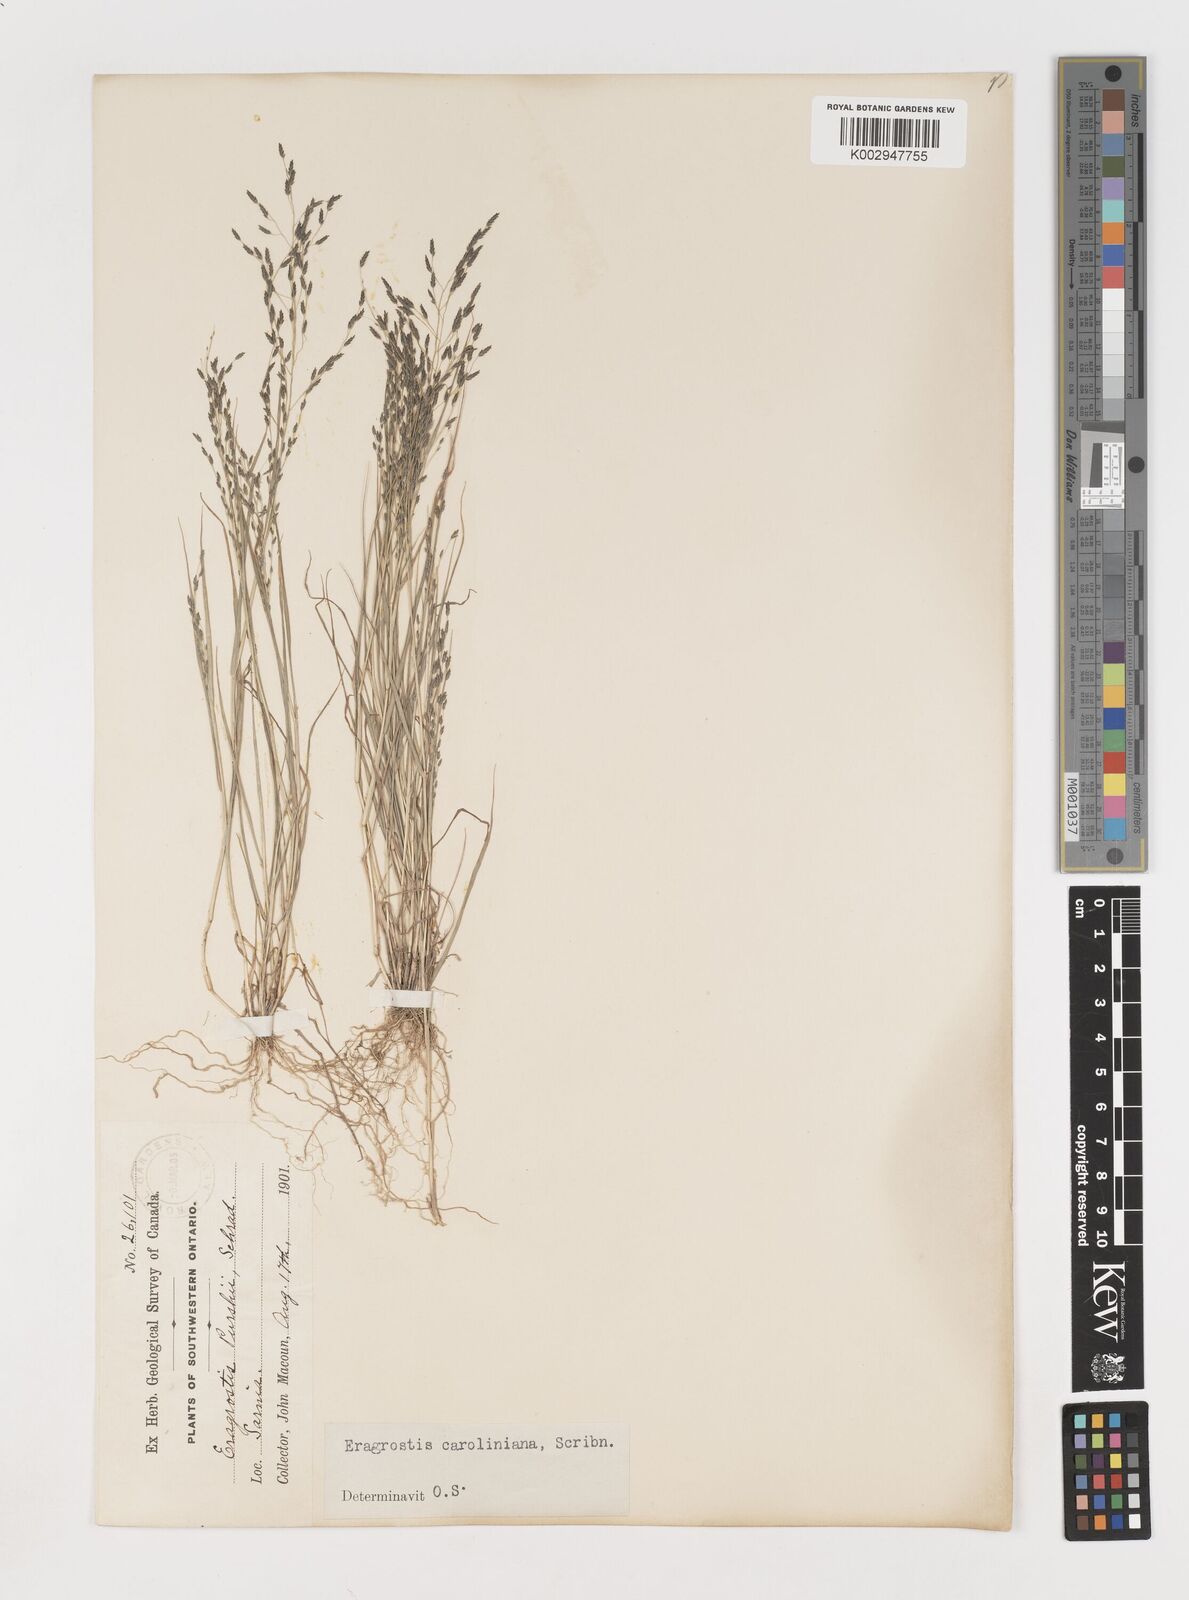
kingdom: Plantae
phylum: Tracheophyta
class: Liliopsida
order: Poales
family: Poaceae
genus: Eragrostis
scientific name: Eragrostis pectinacea
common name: Tufted lovegrass
